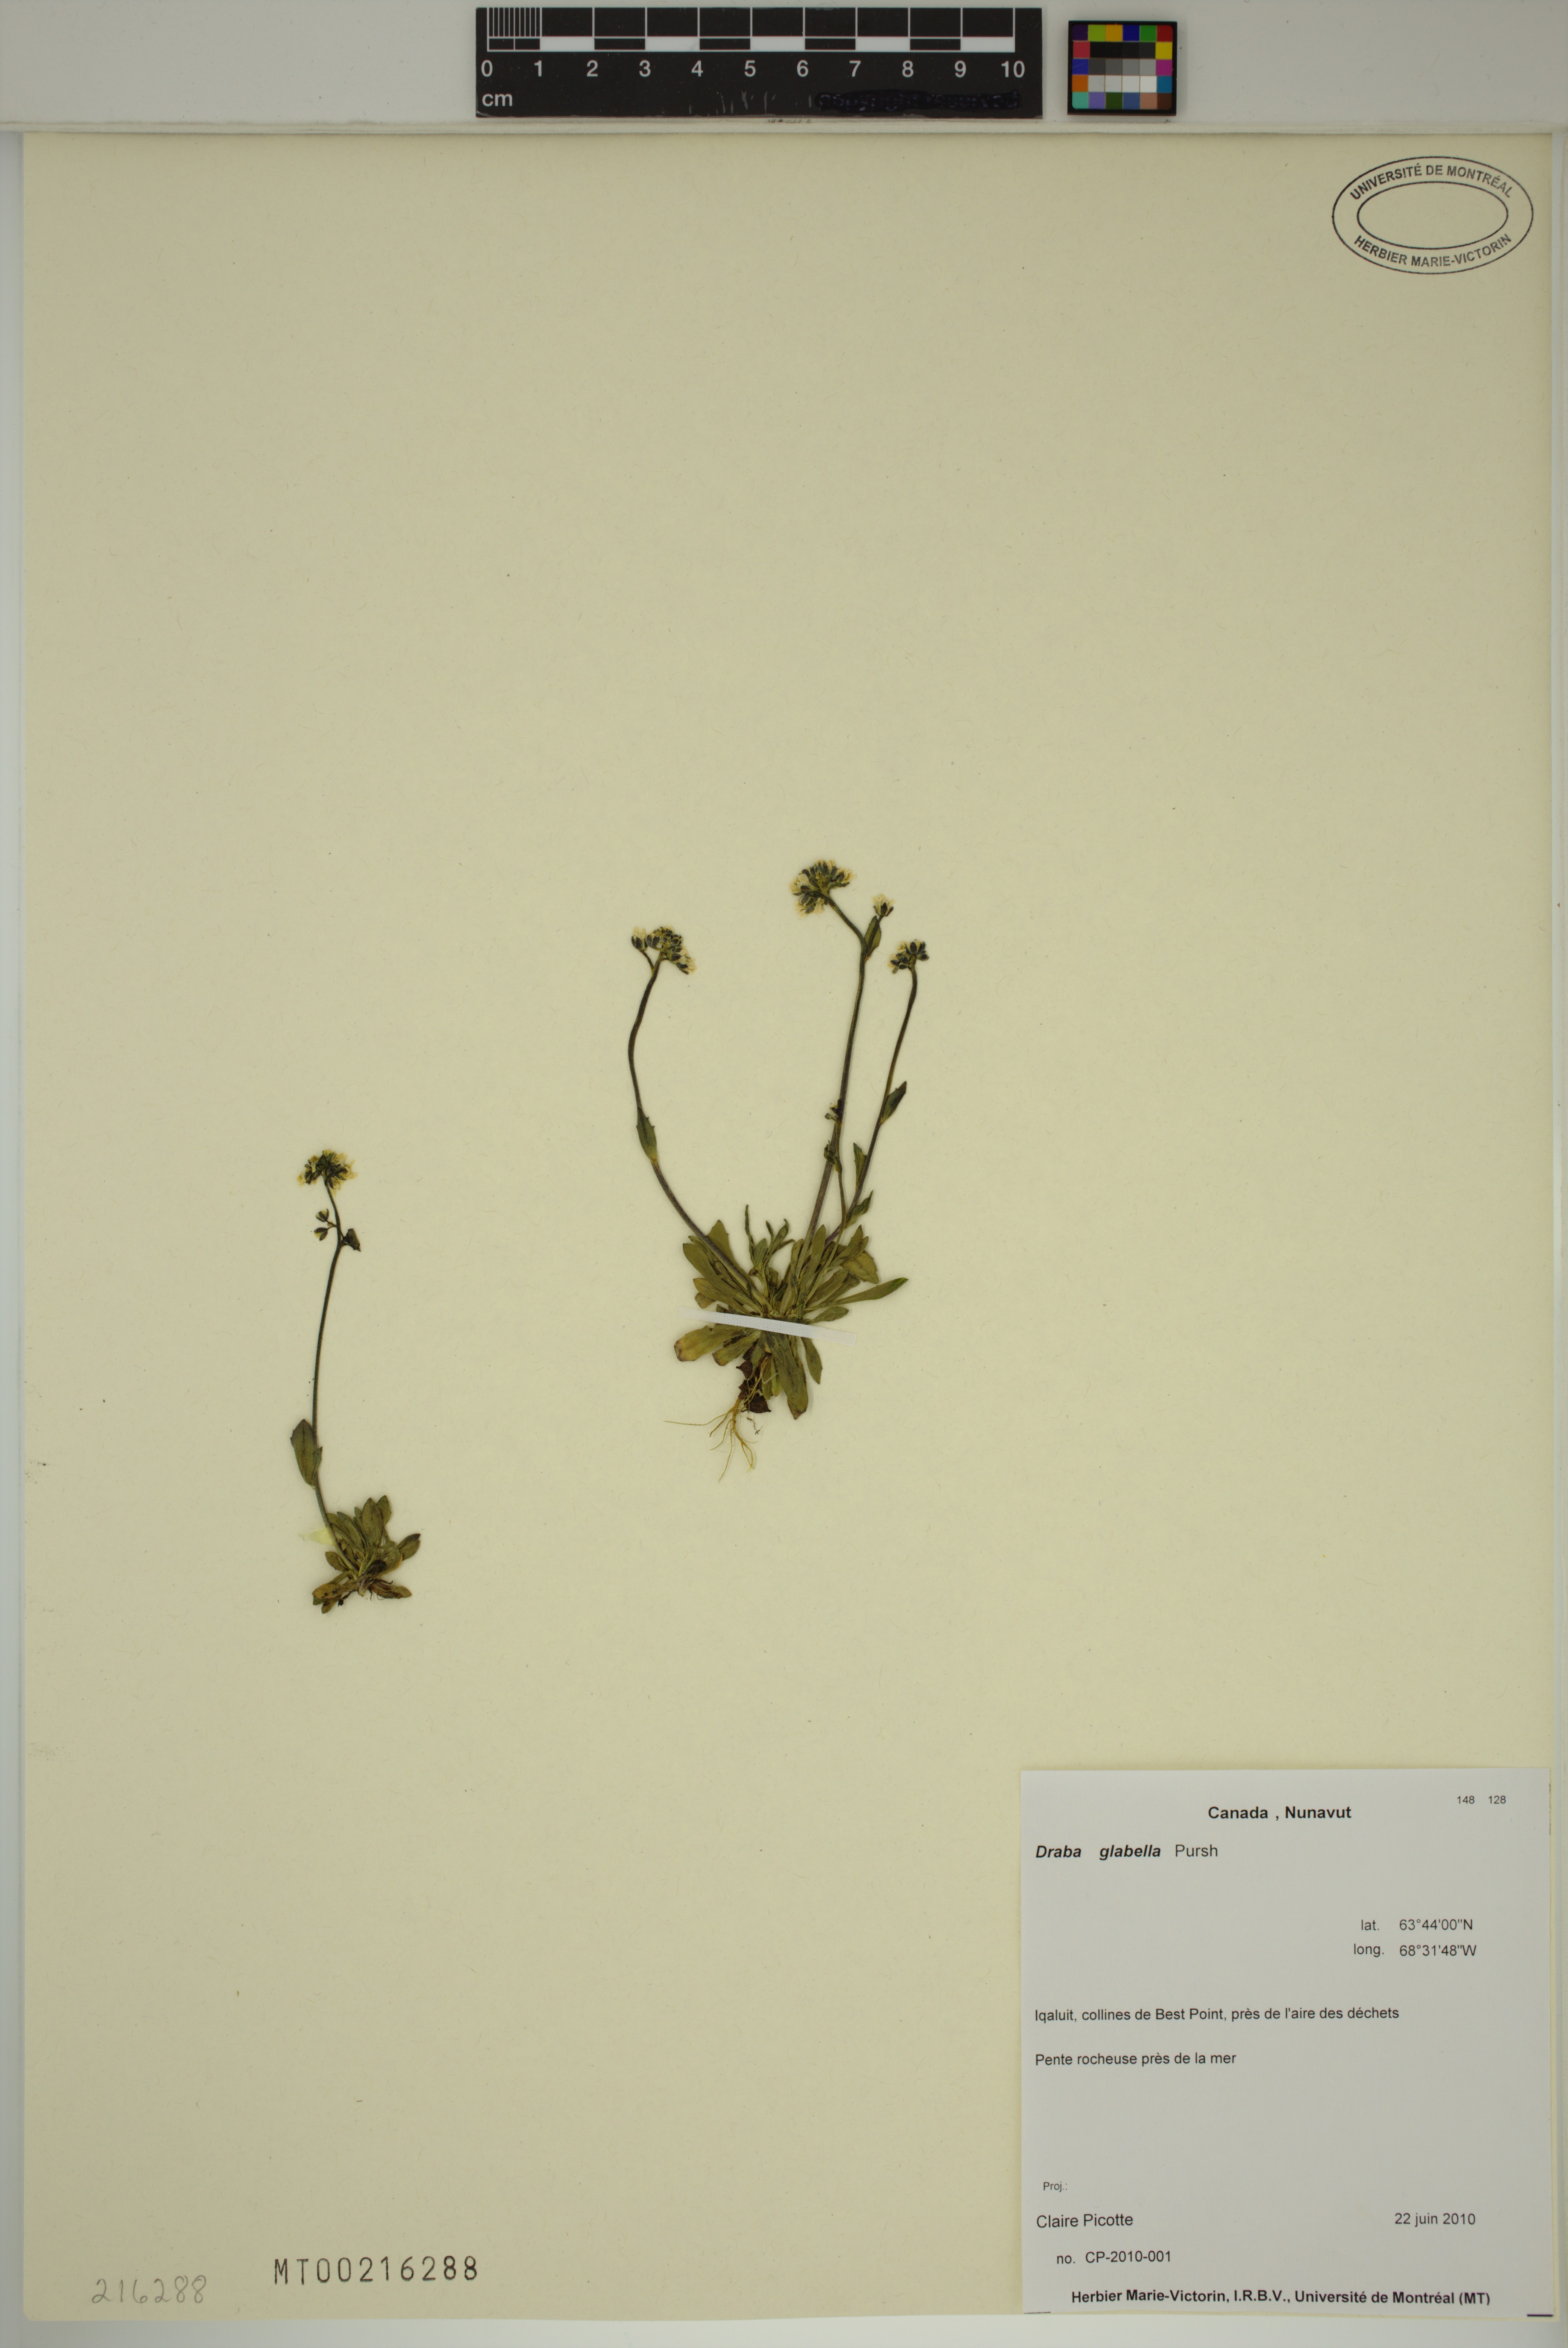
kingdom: Plantae
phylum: Tracheophyta
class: Magnoliopsida
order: Brassicales
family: Brassicaceae
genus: Draba
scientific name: Draba glabella
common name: Glaucous draba
